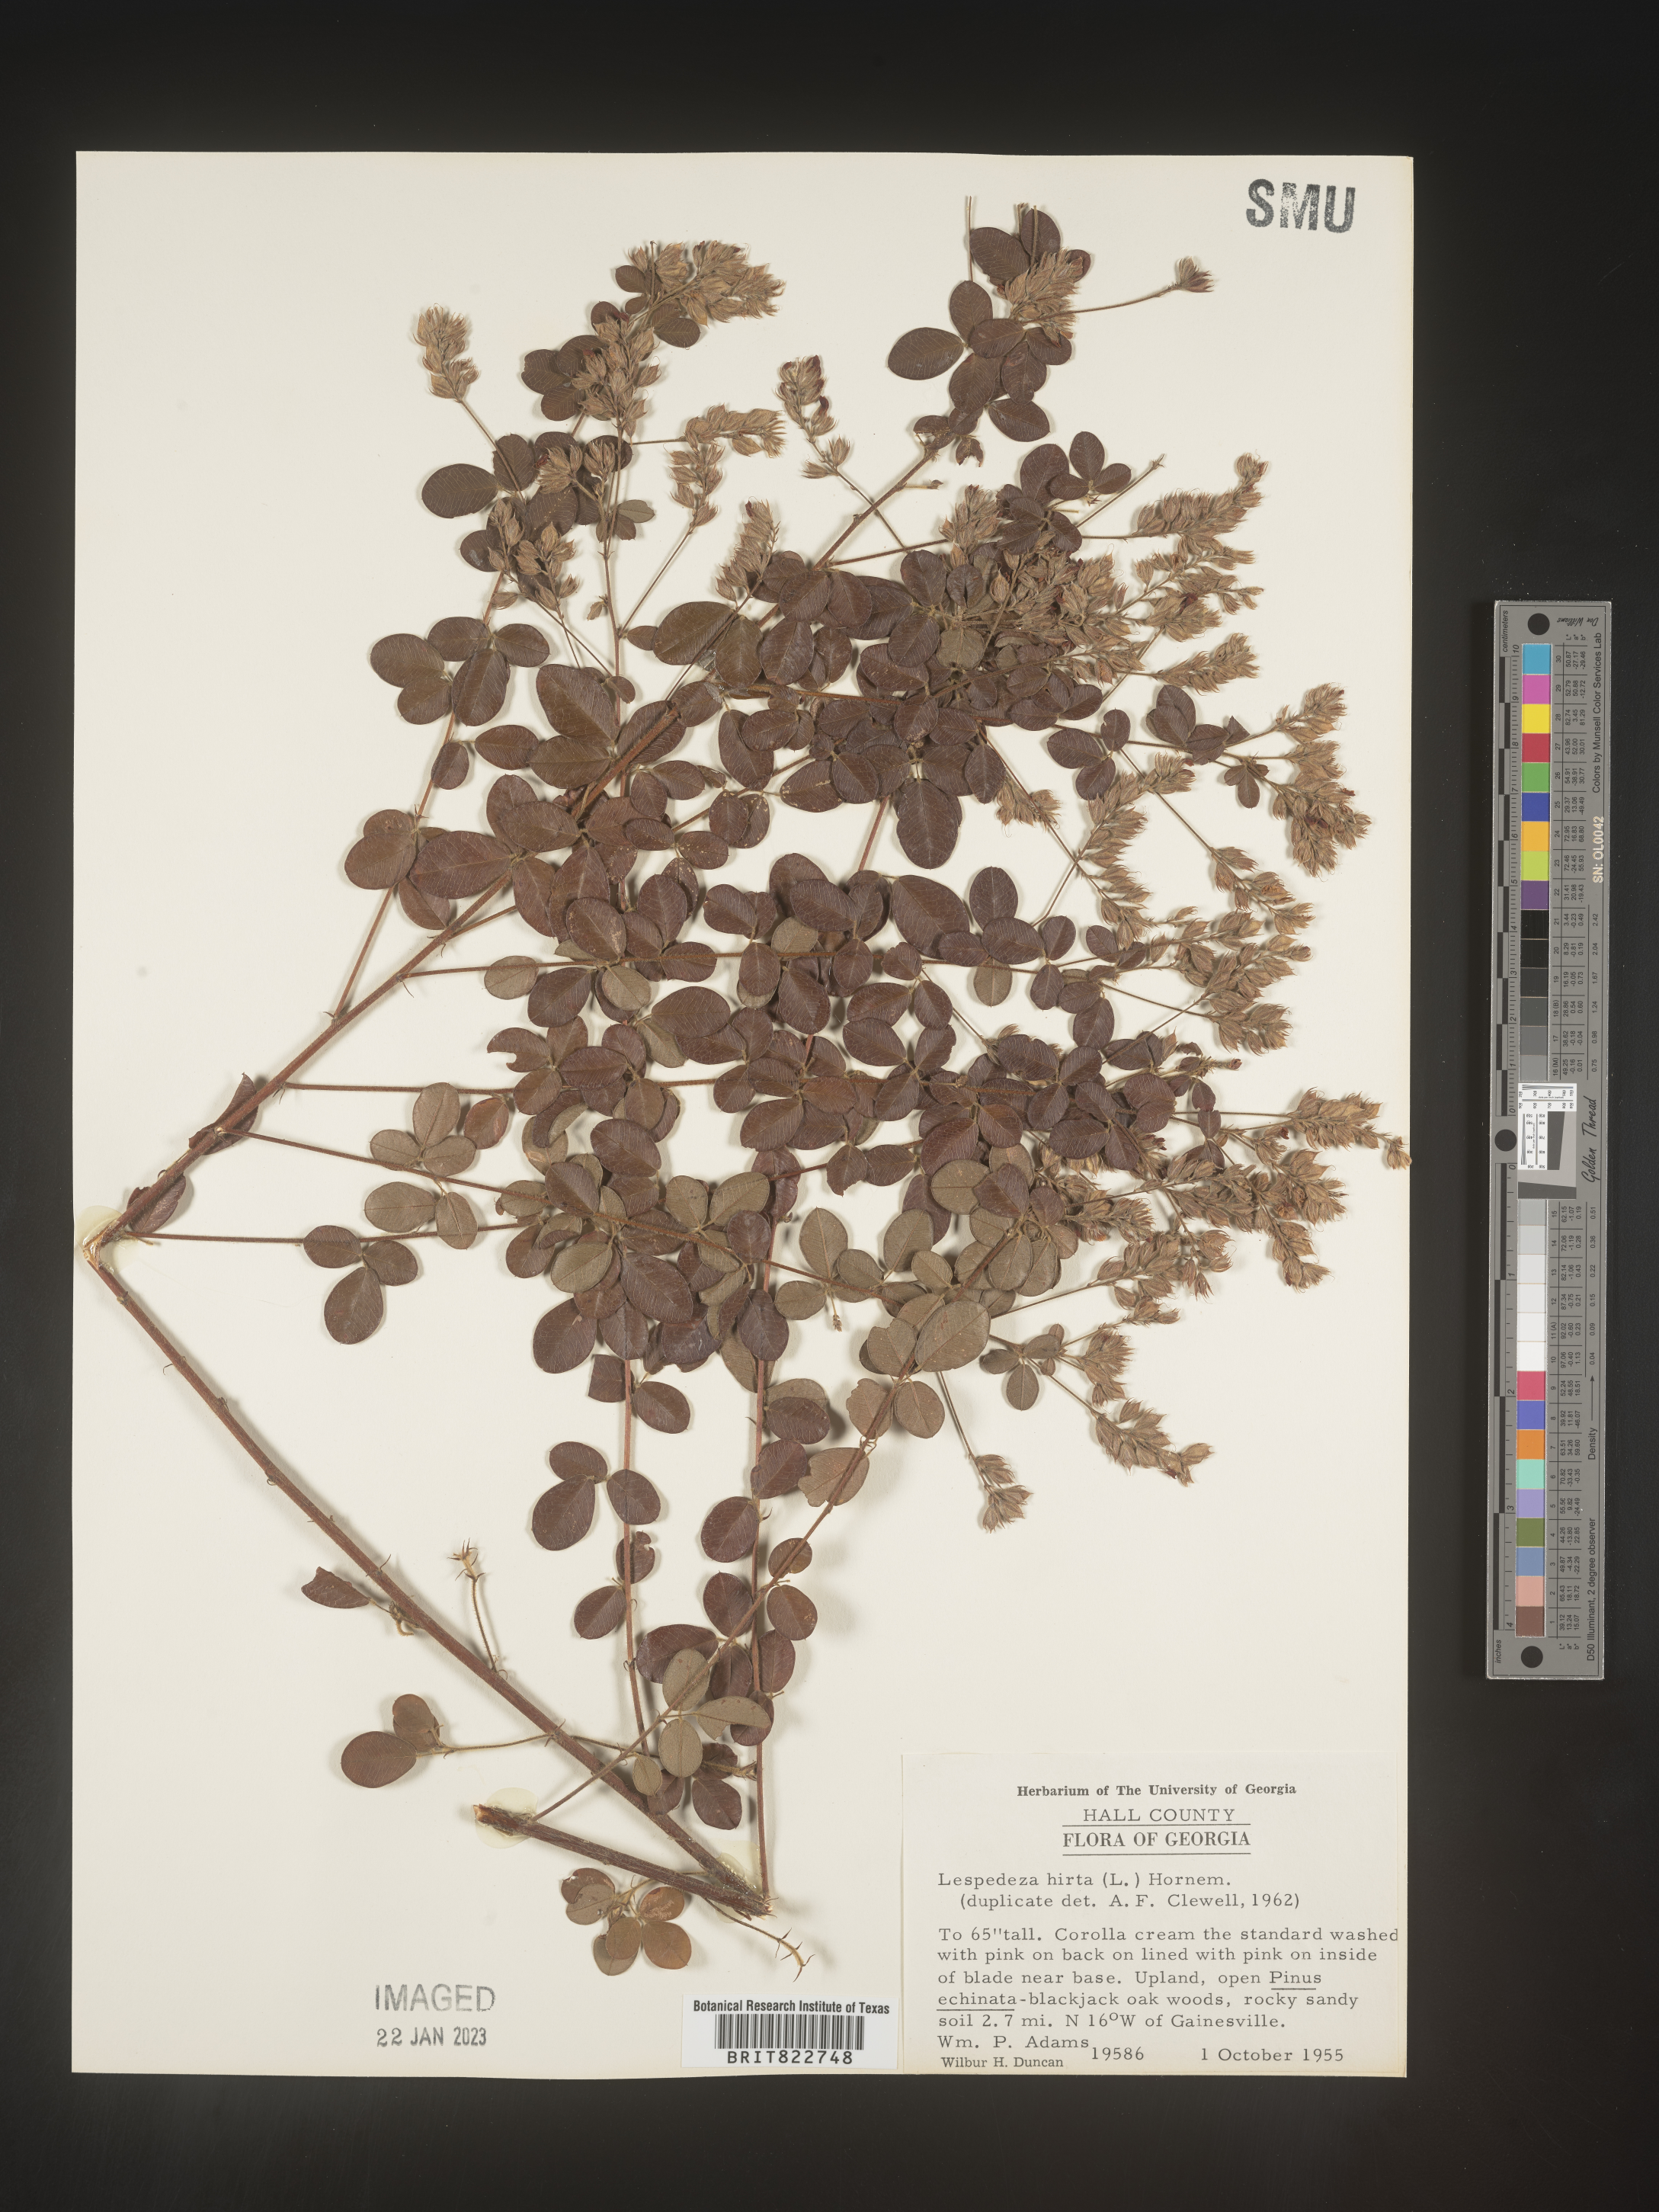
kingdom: Plantae
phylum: Tracheophyta
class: Magnoliopsida
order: Fabales
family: Fabaceae
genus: Lespedeza
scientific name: Lespedeza hirta
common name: Hairy lespedeza
